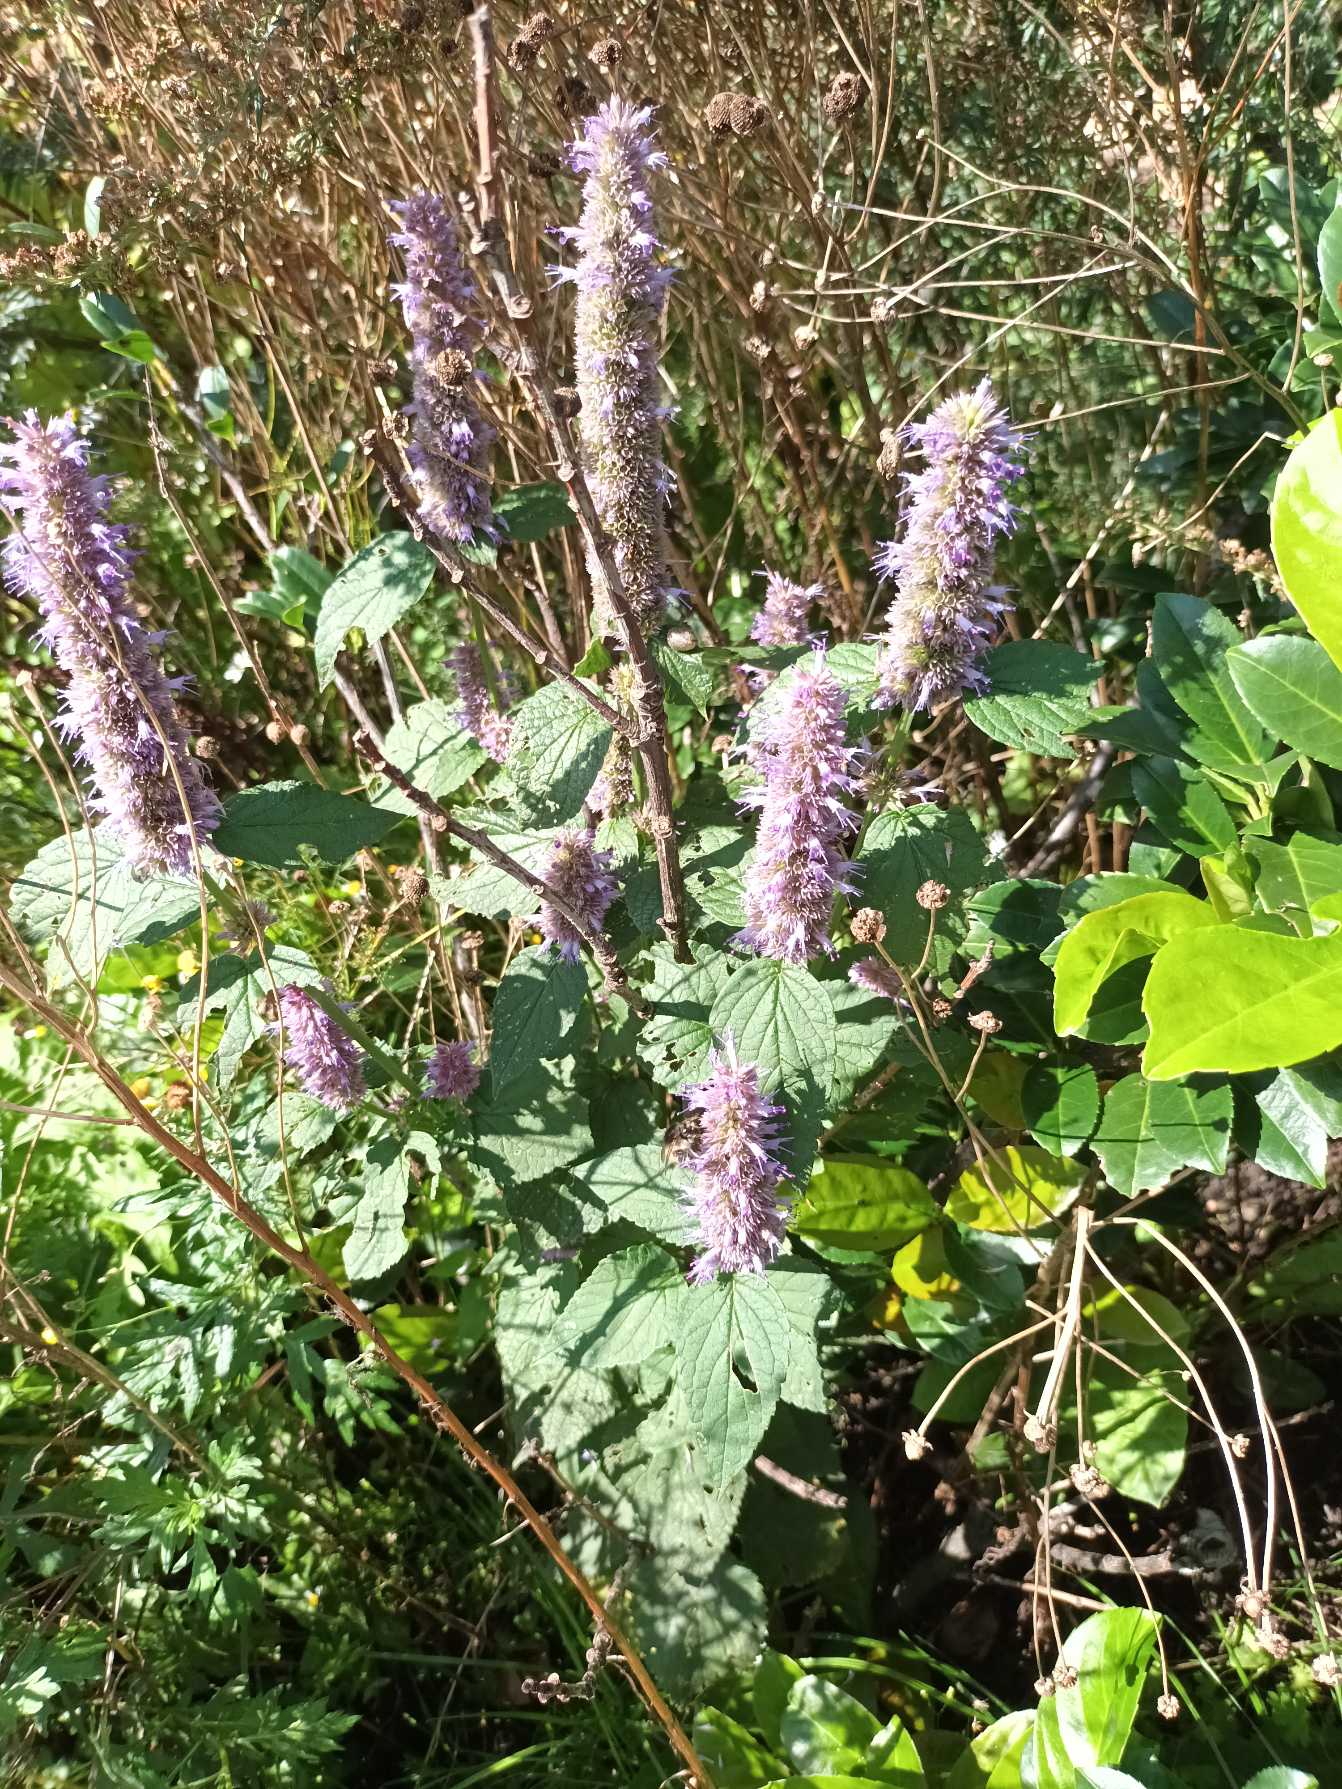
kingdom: Plantae
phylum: Tracheophyta
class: Magnoliopsida
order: Lamiales
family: Lamiaceae
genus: Agastache
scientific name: Agastache rugosa
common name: Koreansk anisisop
